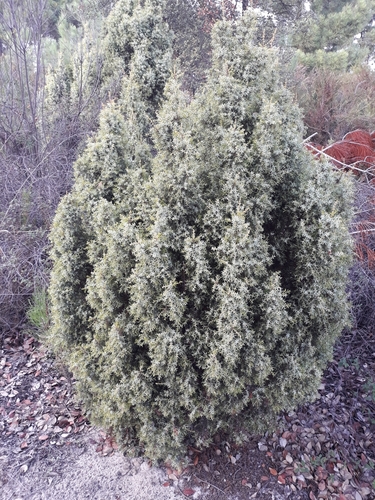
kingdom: Plantae
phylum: Tracheophyta
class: Pinopsida
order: Pinales
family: Cupressaceae
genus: Juniperus
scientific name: Juniperus oxycedrus
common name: Prickly juniper
